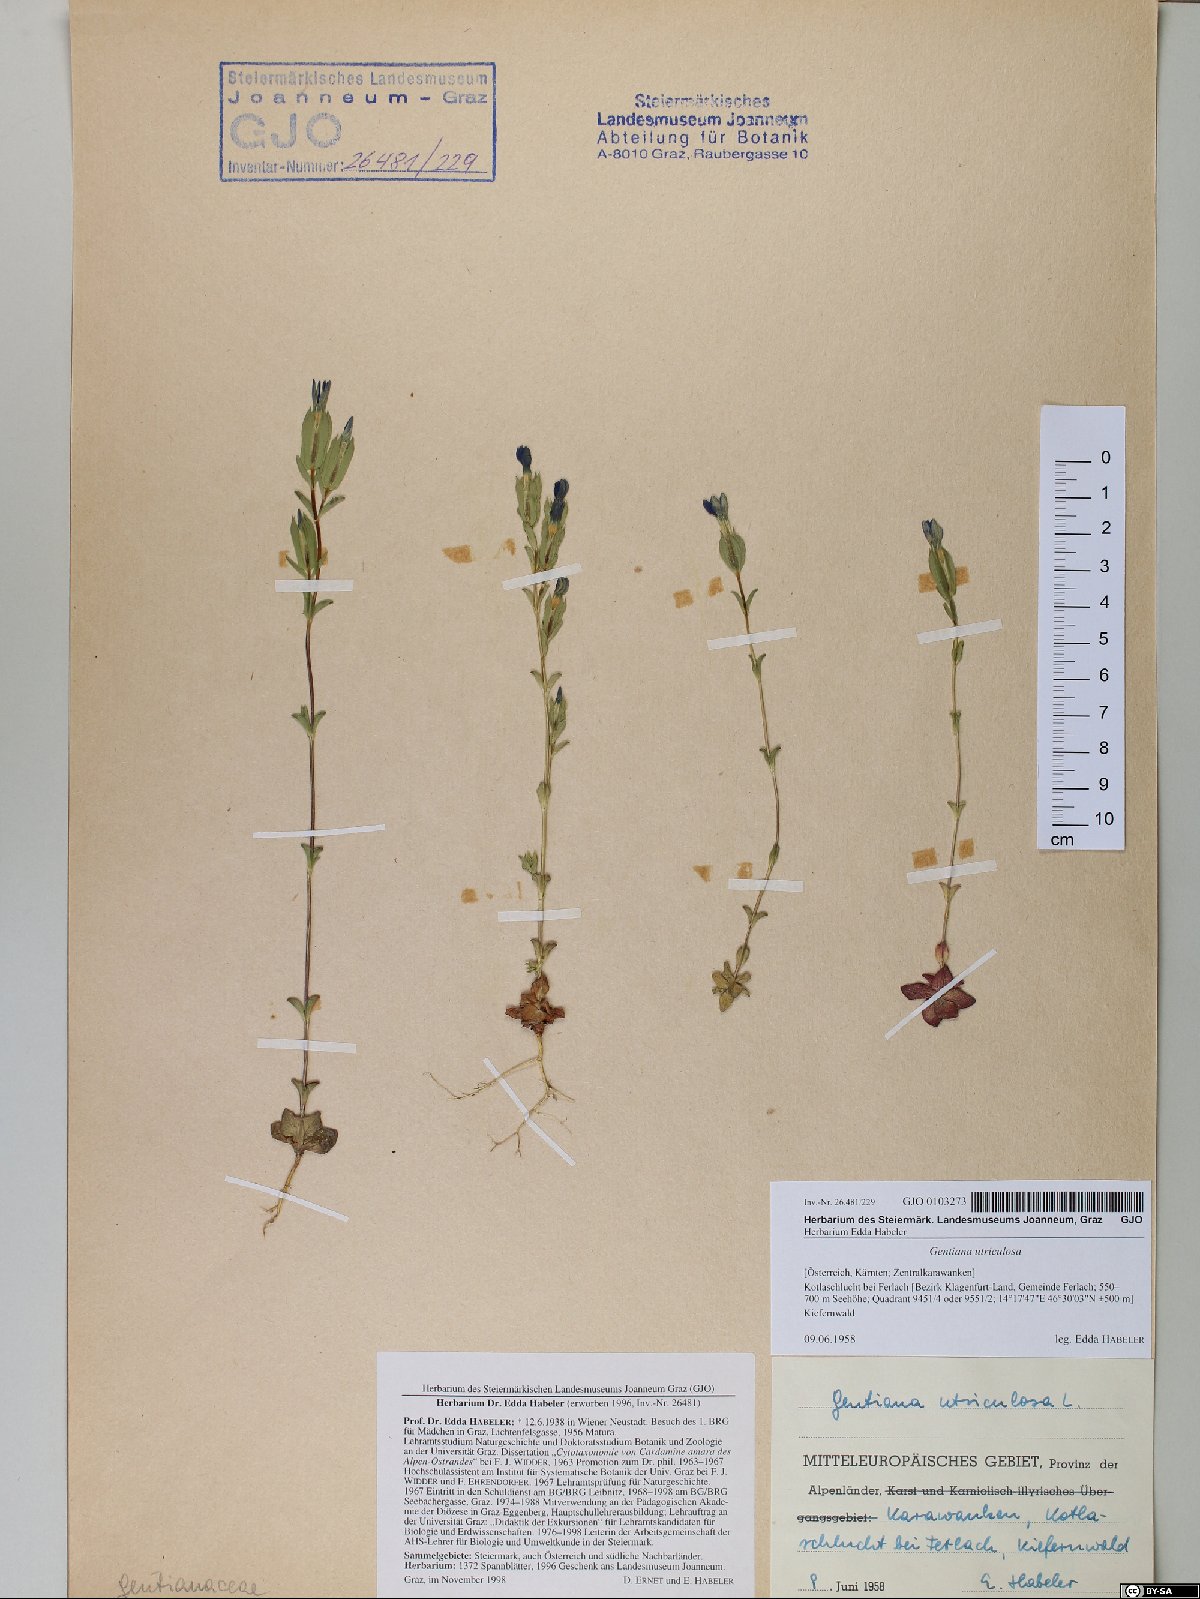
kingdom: Plantae
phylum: Tracheophyta
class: Magnoliopsida
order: Gentianales
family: Gentianaceae
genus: Gentiana
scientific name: Gentiana utriculosa
